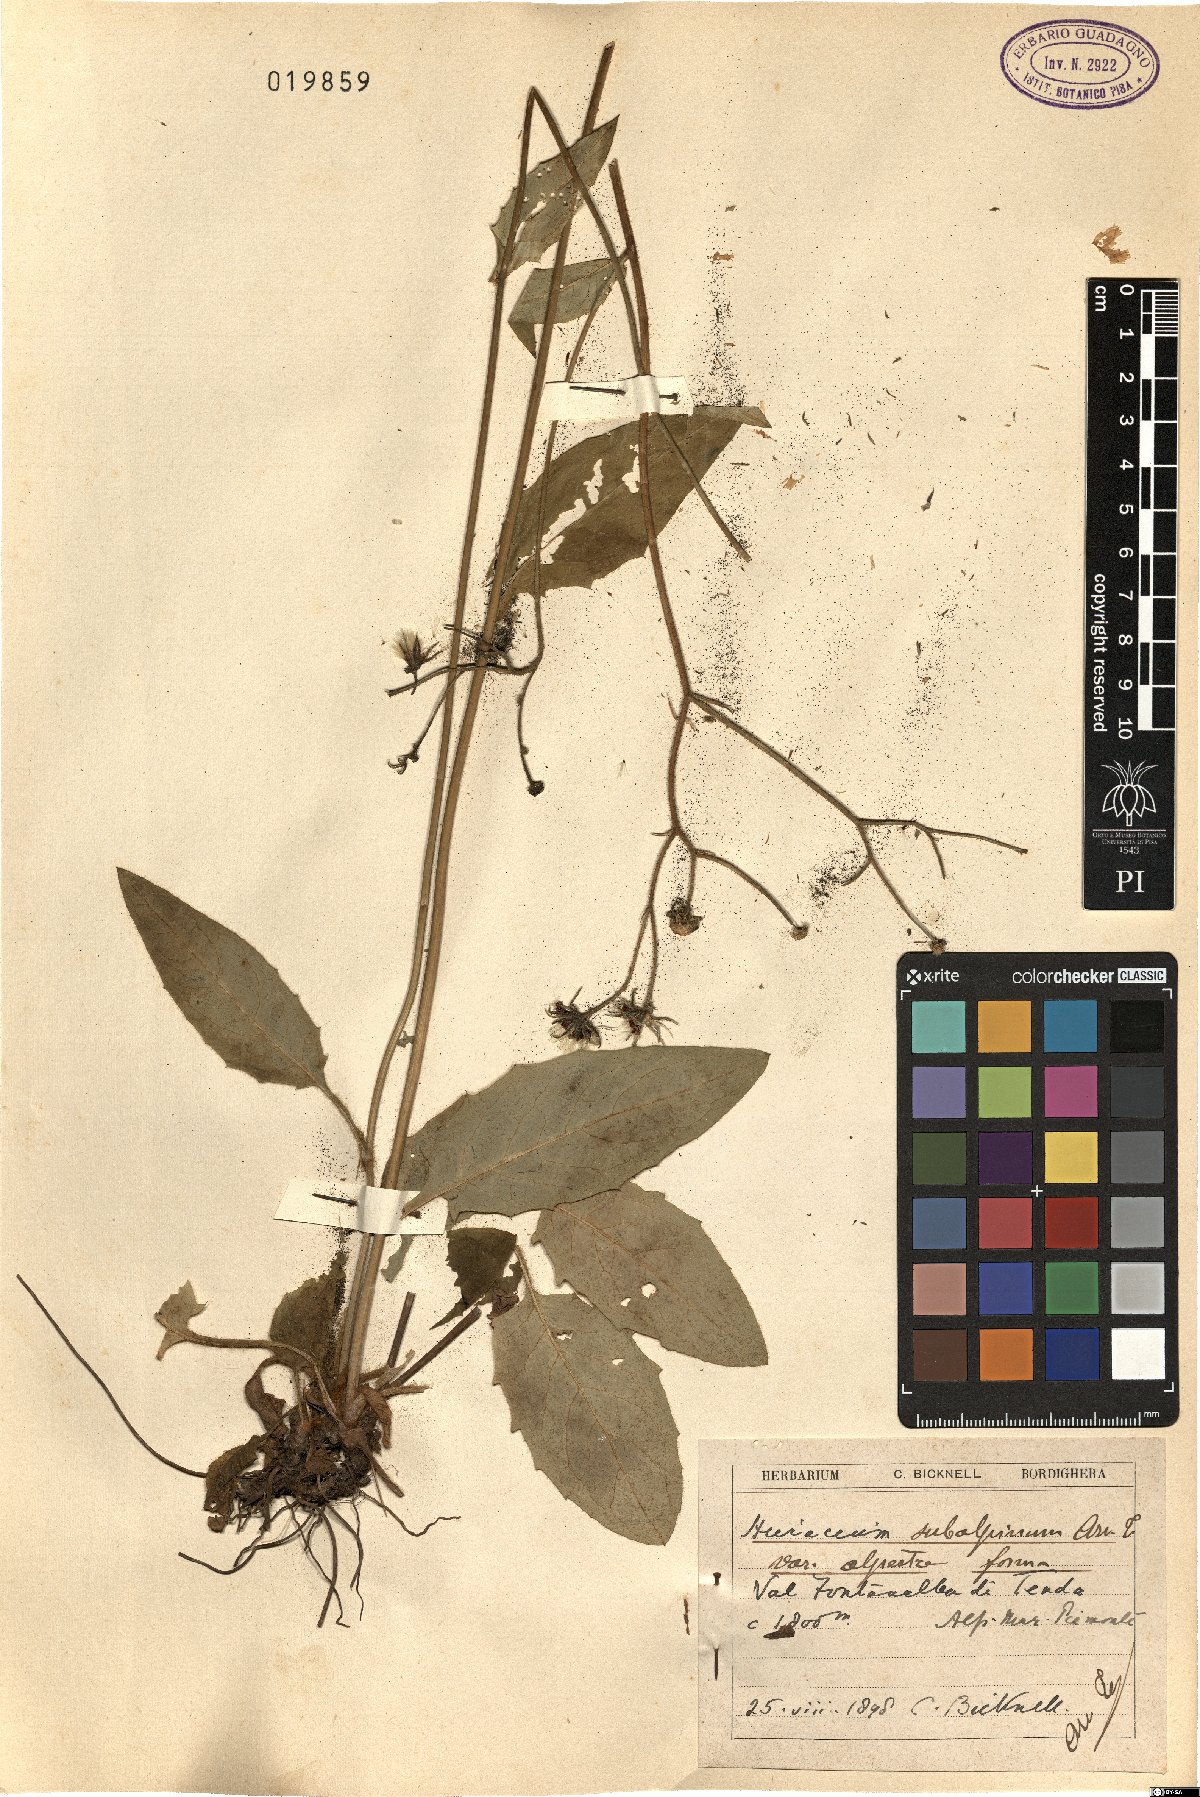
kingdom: Plantae
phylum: Tracheophyta
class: Magnoliopsida
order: Asterales
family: Asteraceae
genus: Hieracium
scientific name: Hieracium umbrosum
